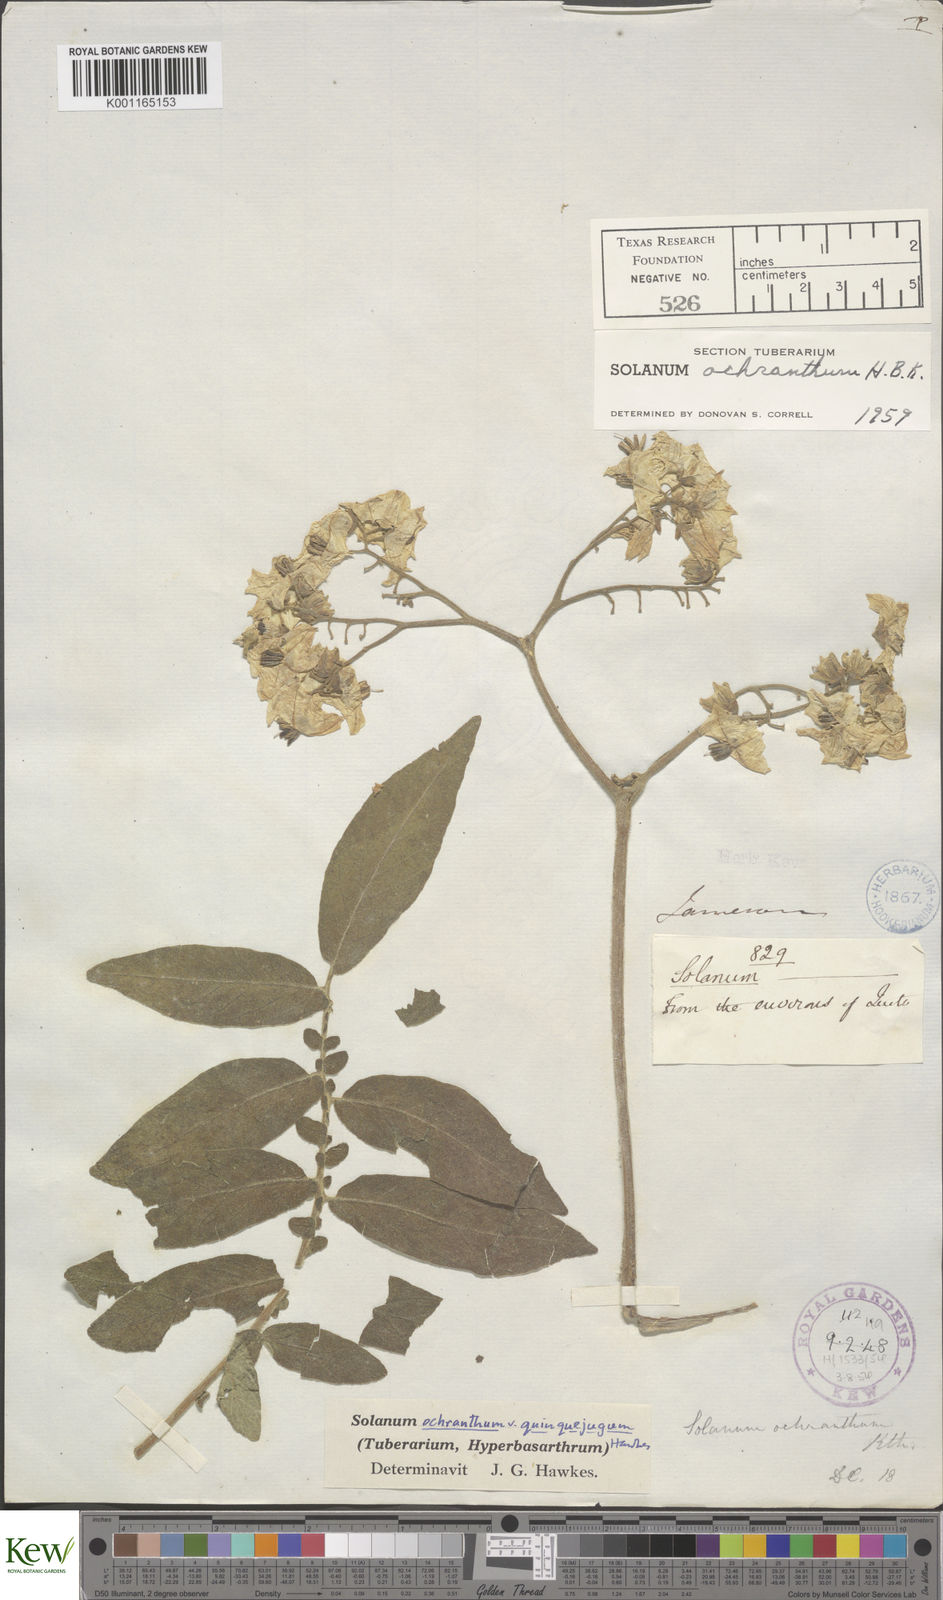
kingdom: Plantae
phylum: Tracheophyta
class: Magnoliopsida
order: Solanales
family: Solanaceae
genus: Solanum
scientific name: Solanum ochranthum
